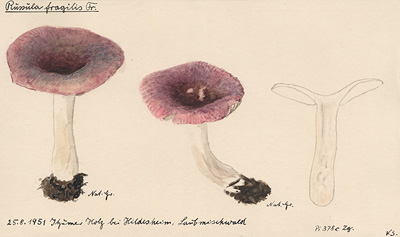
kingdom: Fungi
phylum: Basidiomycota
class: Agaricomycetes
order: Russulales
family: Russulaceae
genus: Russula
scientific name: Russula fragilis
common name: Fragile brittlegill
